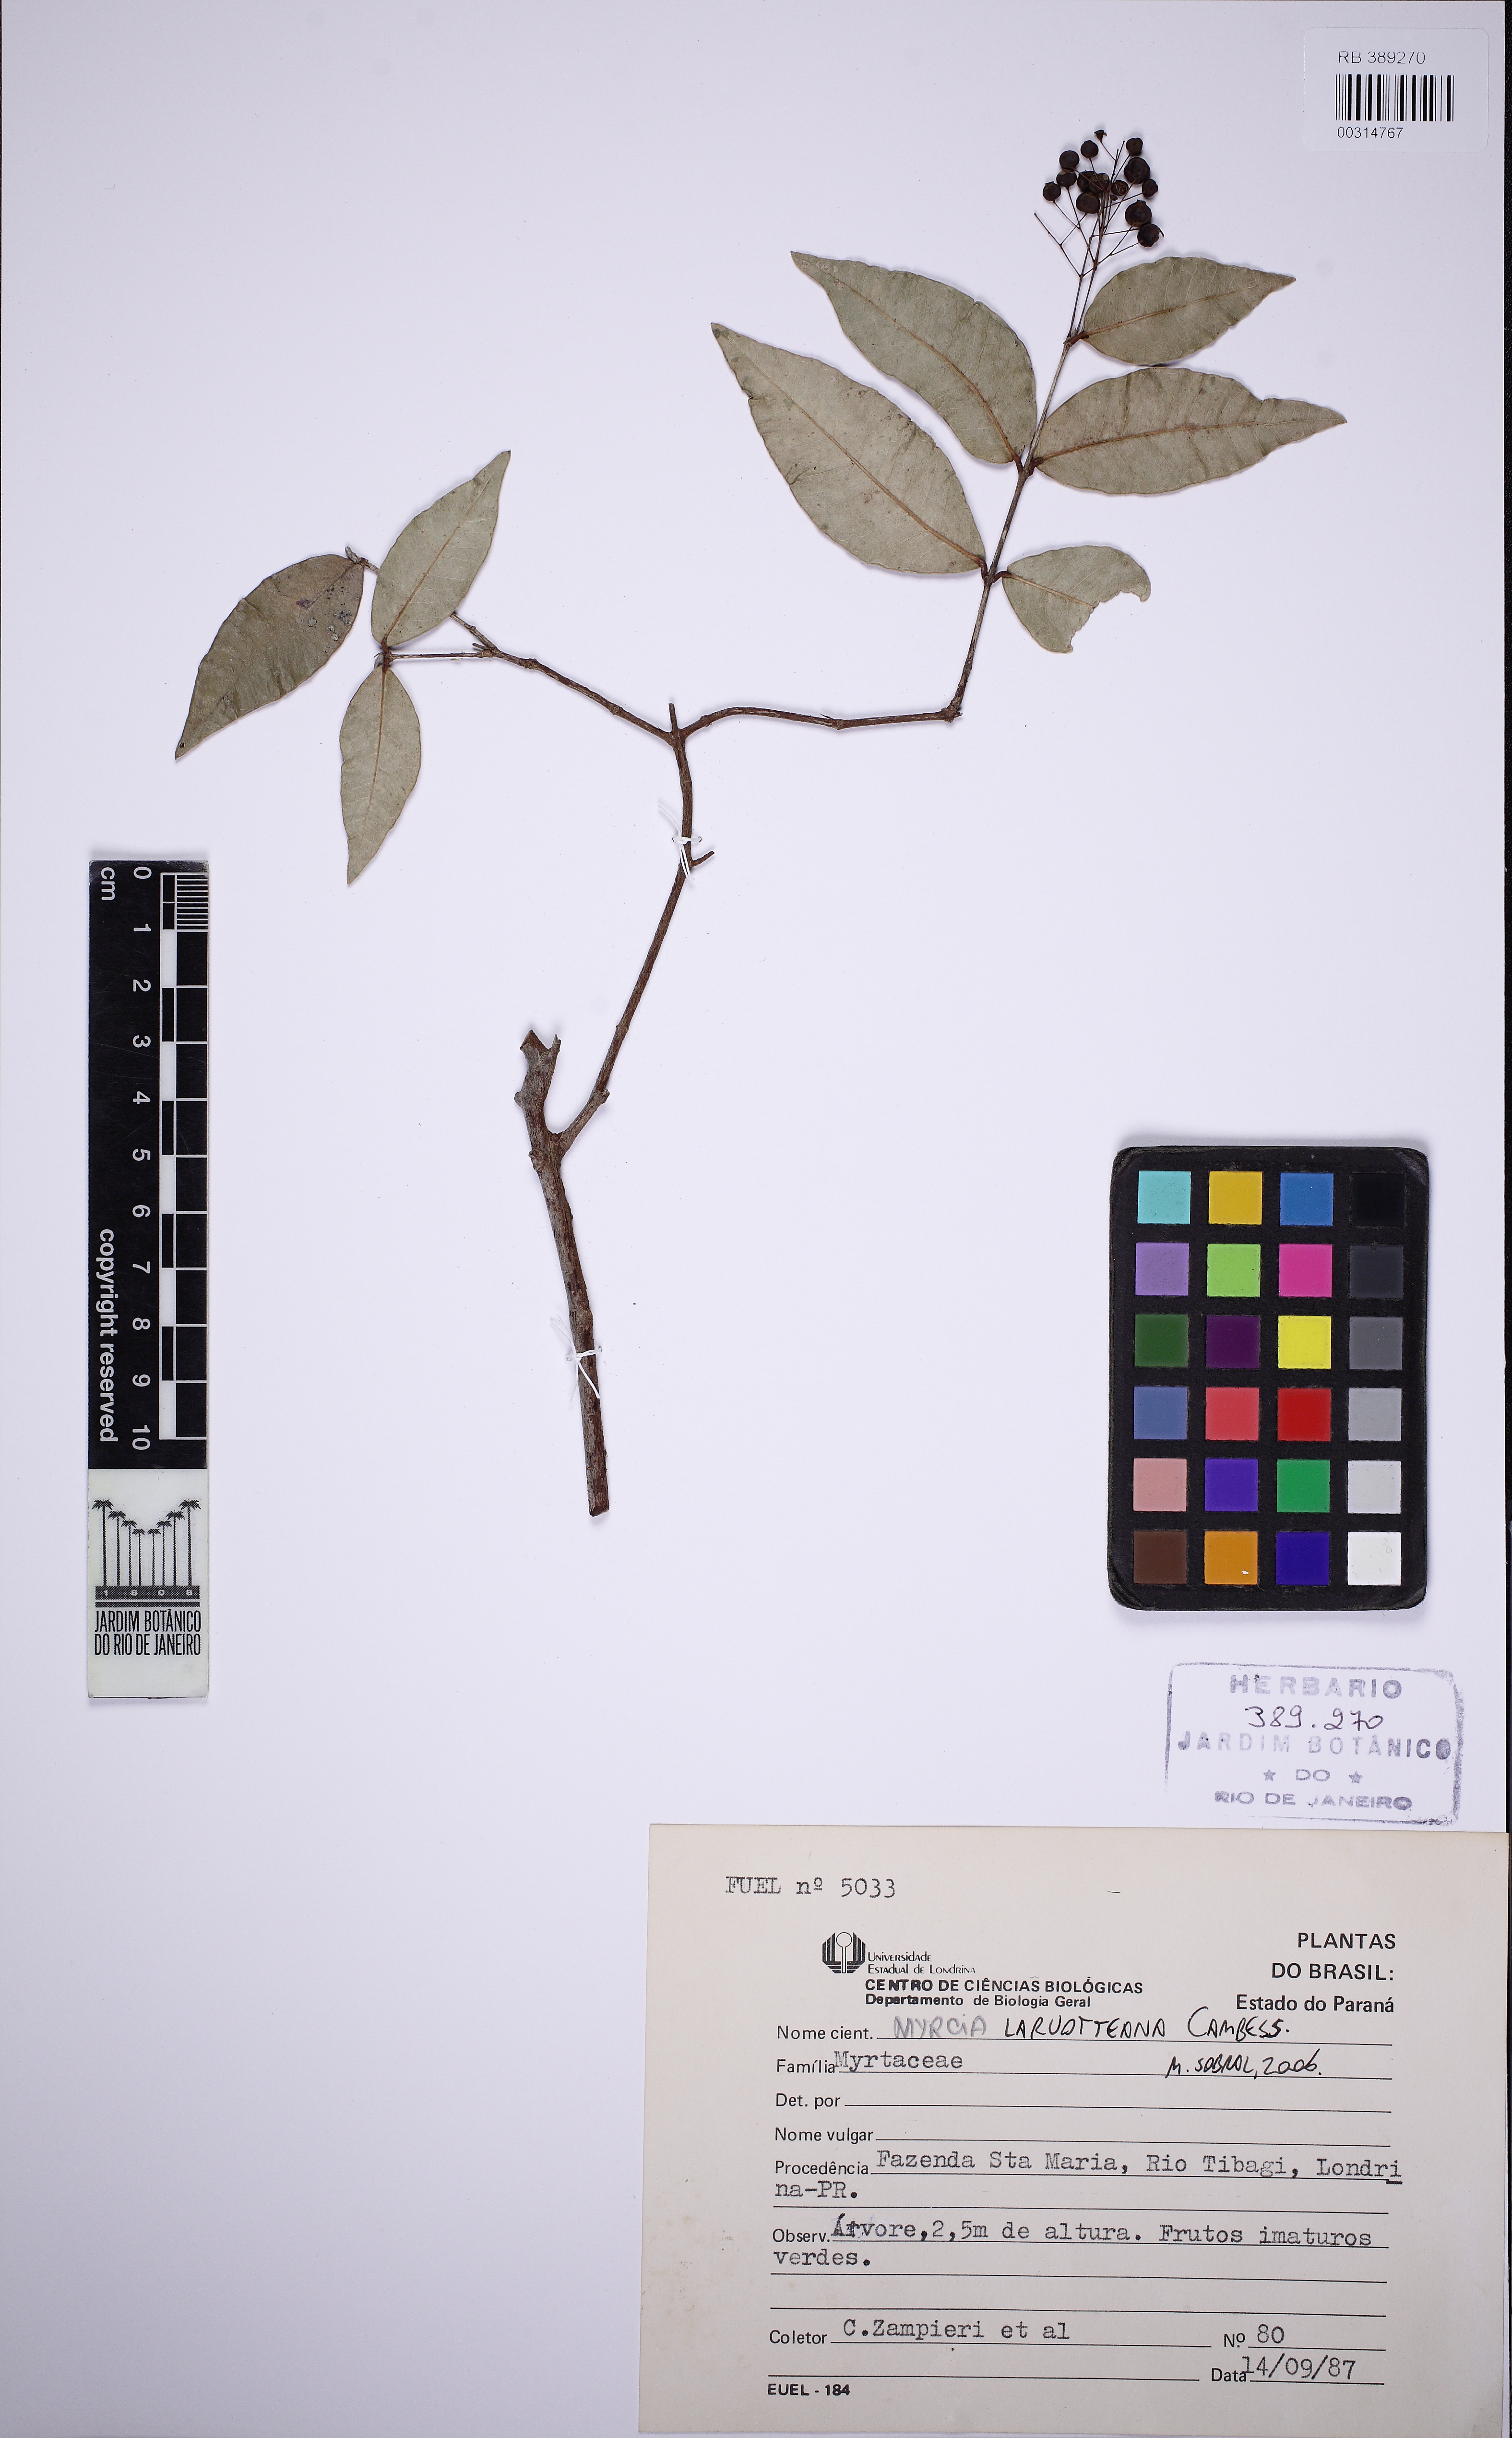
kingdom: Plantae
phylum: Tracheophyta
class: Magnoliopsida
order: Myrtales
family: Myrtaceae
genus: Myrcia
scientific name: Myrcia laruotteana
